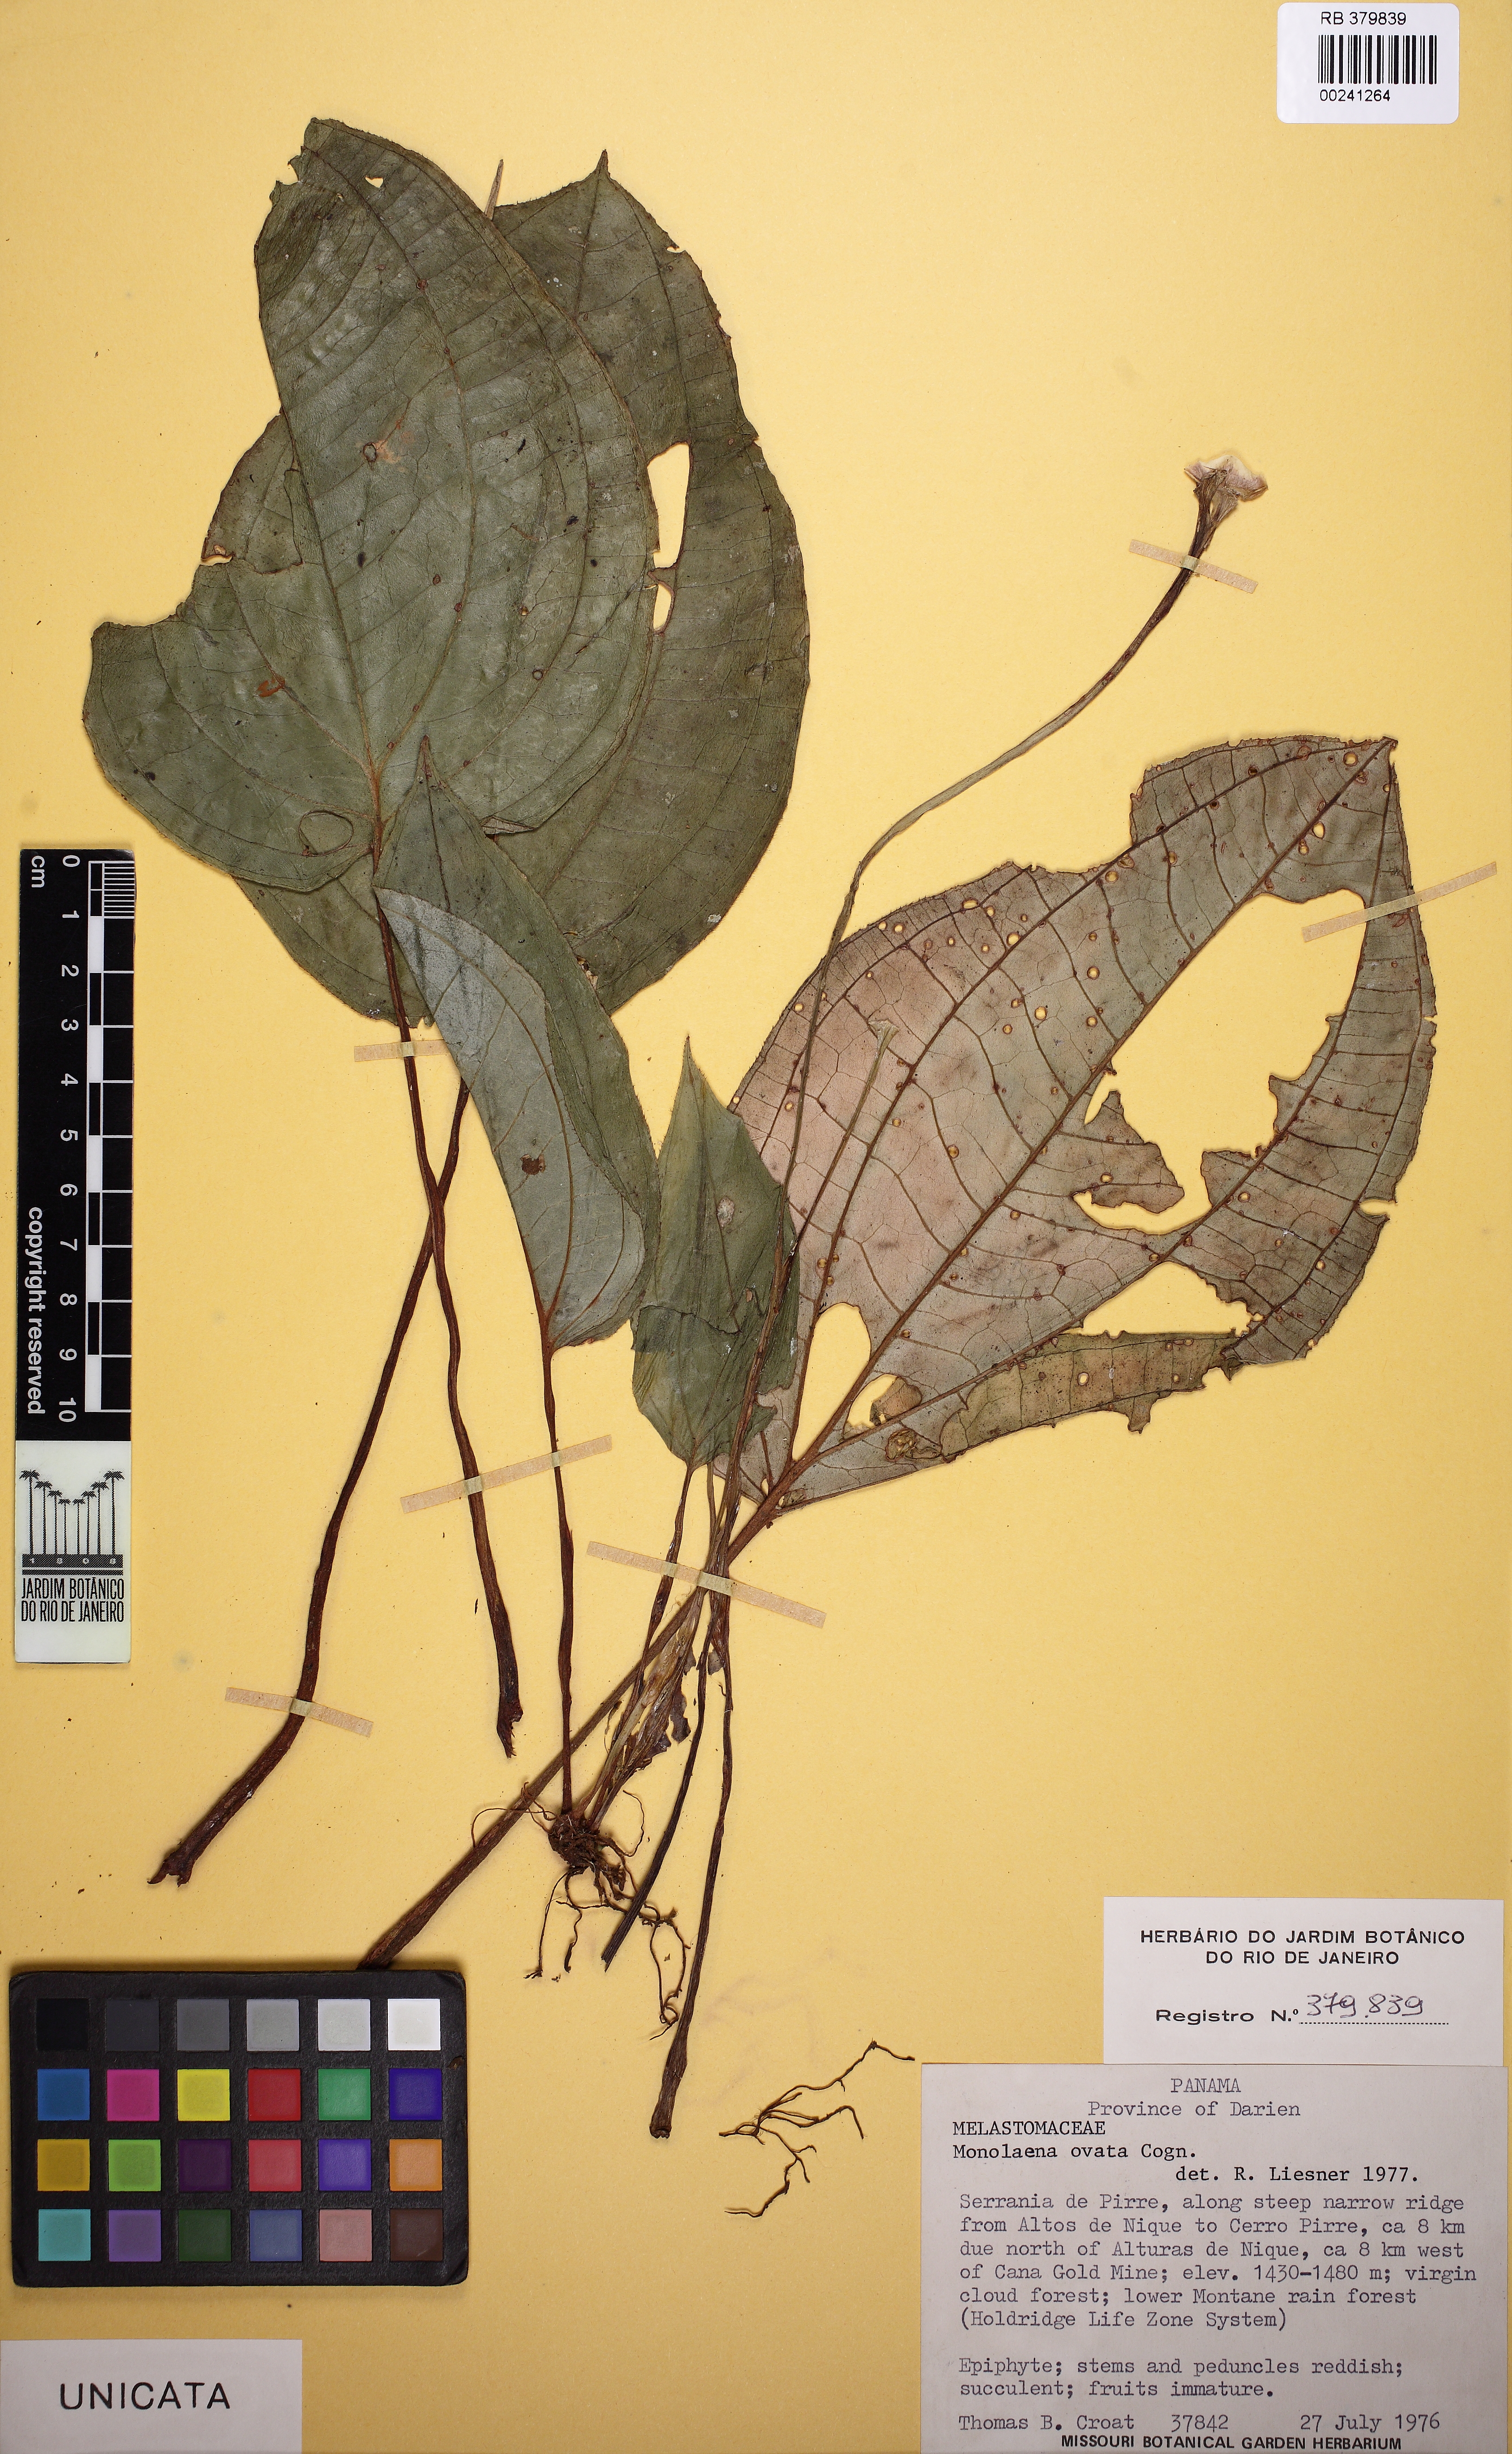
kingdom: Plantae
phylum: Tracheophyta
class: Magnoliopsida
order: Myrtales
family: Melastomataceae
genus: Monolena
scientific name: Monolena ovata
